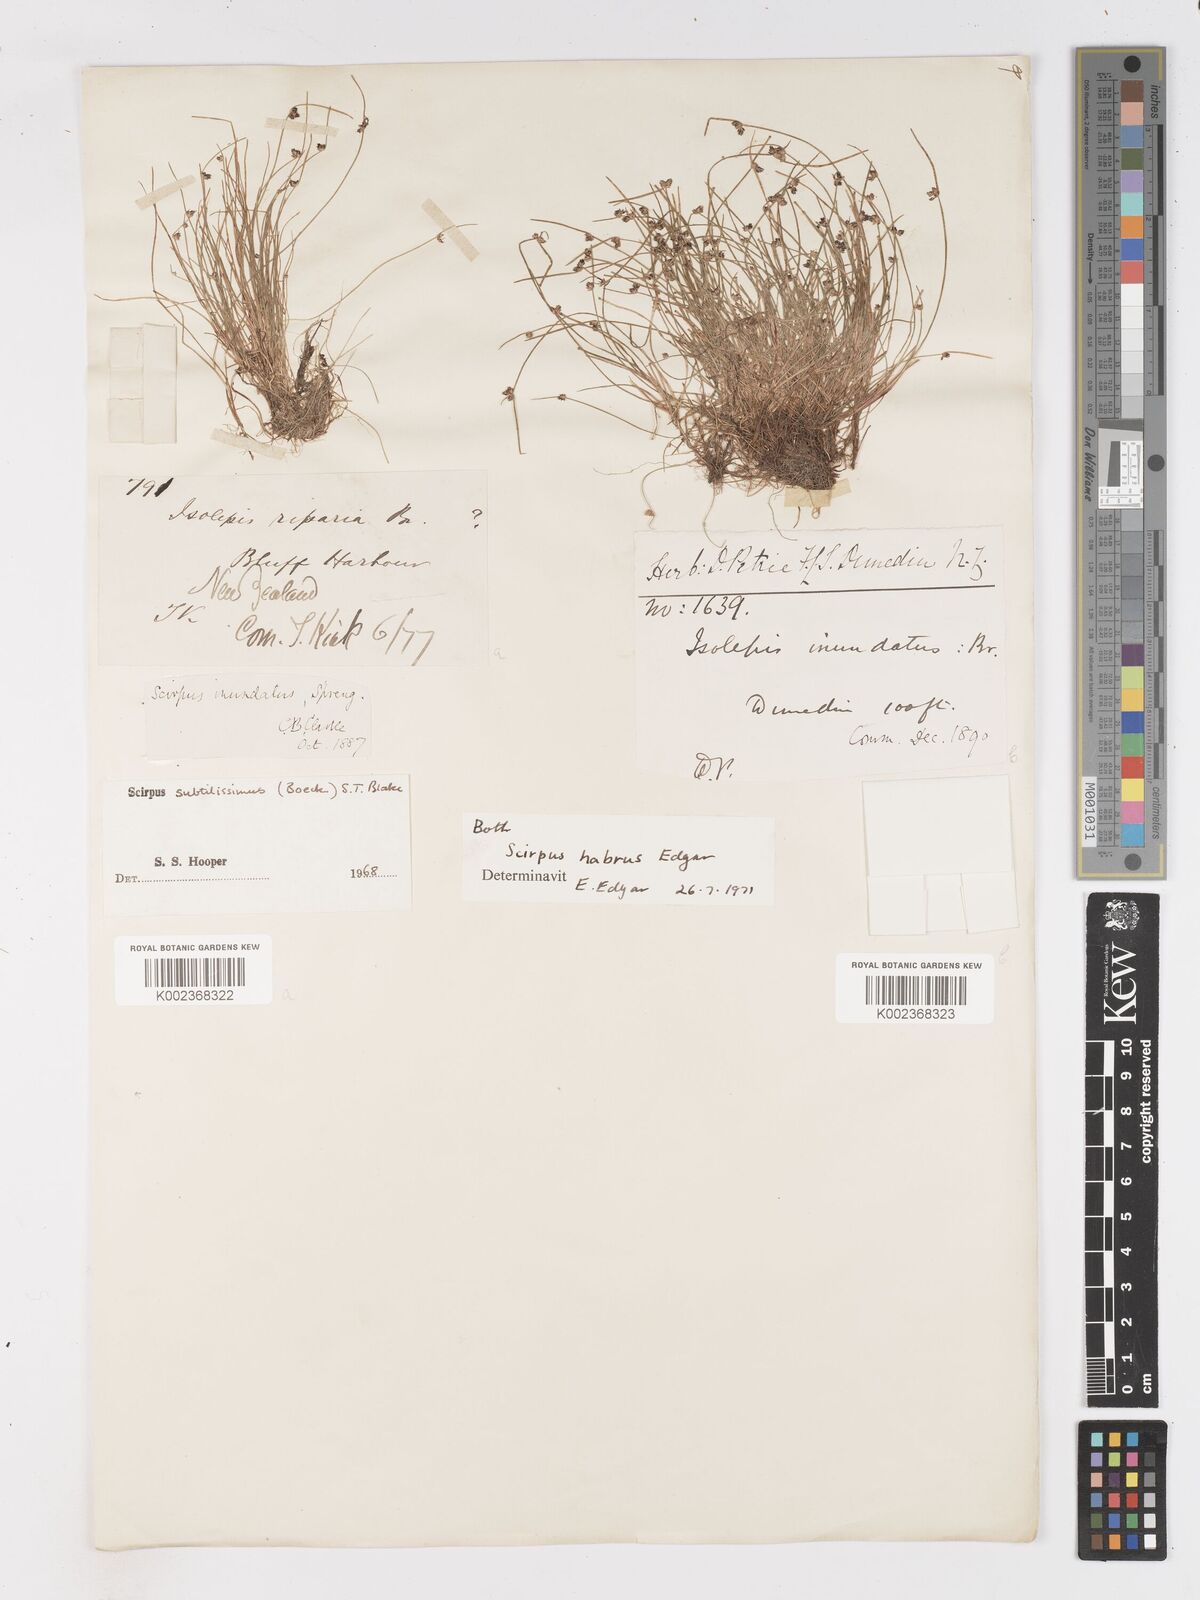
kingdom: Plantae
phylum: Tracheophyta
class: Liliopsida
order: Poales
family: Cyperaceae
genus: Isolepis
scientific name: Isolepis habra
